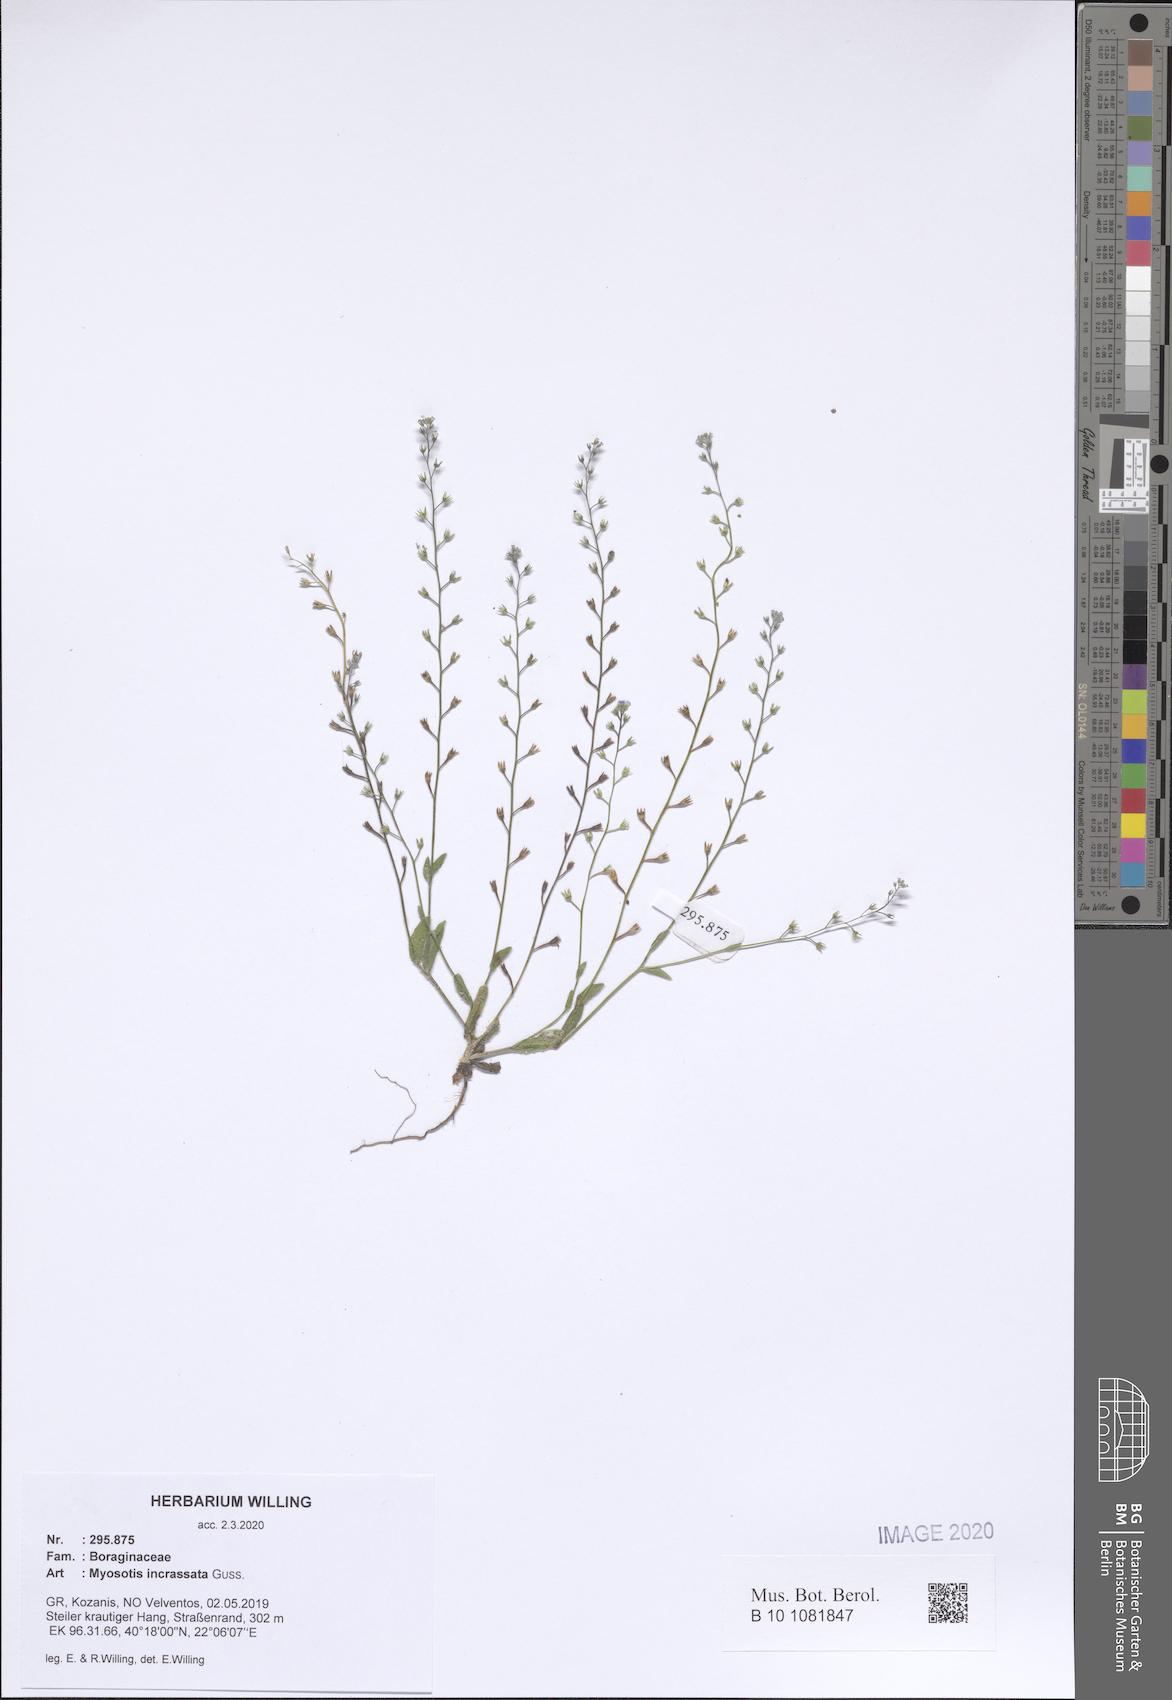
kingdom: Plantae
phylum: Tracheophyta
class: Magnoliopsida
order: Boraginales
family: Boraginaceae
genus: Myosotis
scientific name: Myosotis incrassata
